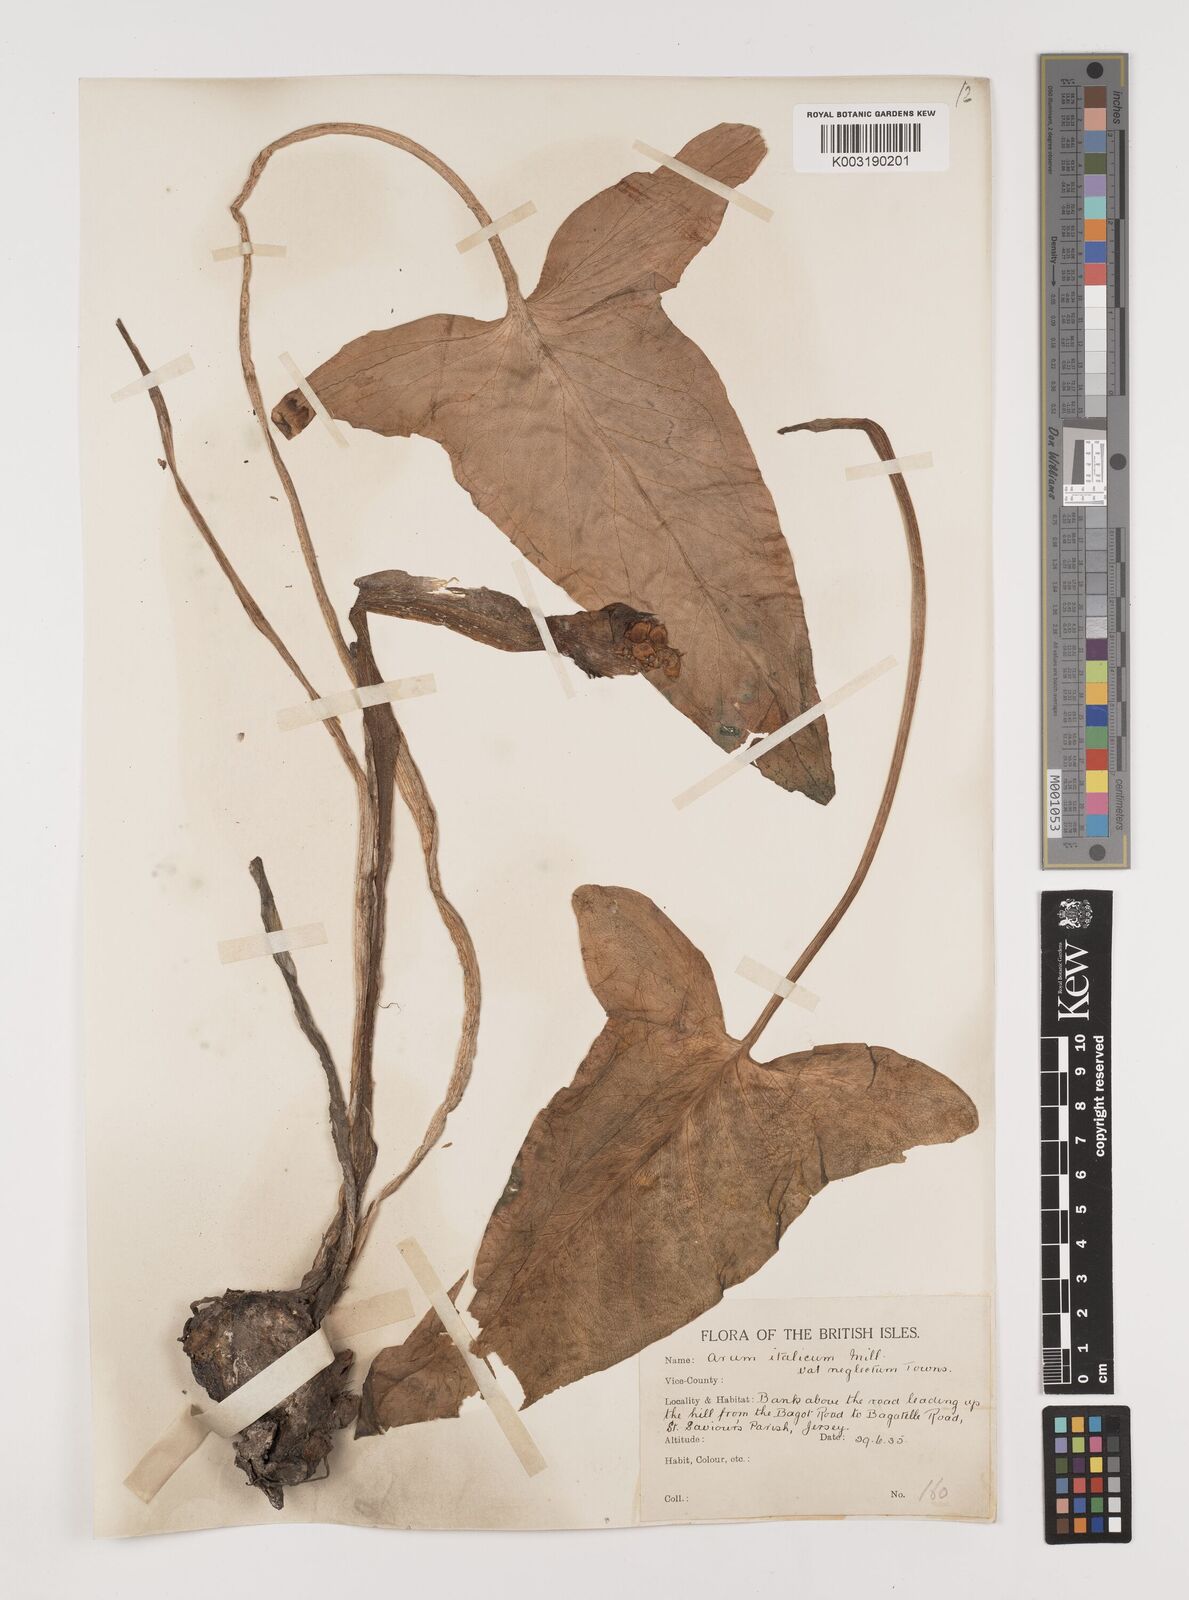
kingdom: Plantae
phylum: Tracheophyta
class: Liliopsida
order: Alismatales
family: Araceae
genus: Arum
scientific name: Arum italicum
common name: Italian lords-and-ladies
